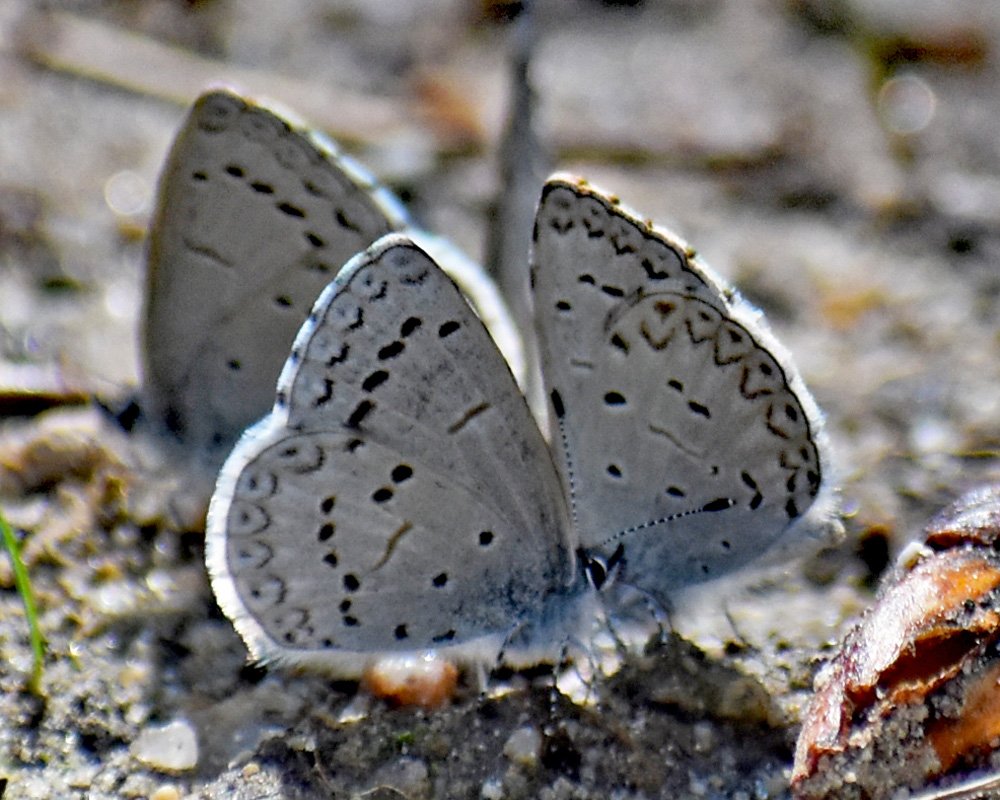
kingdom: Animalia
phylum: Arthropoda
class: Insecta
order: Lepidoptera
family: Lycaenidae
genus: Celastrina
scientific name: Celastrina ladon
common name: Echo Azure
